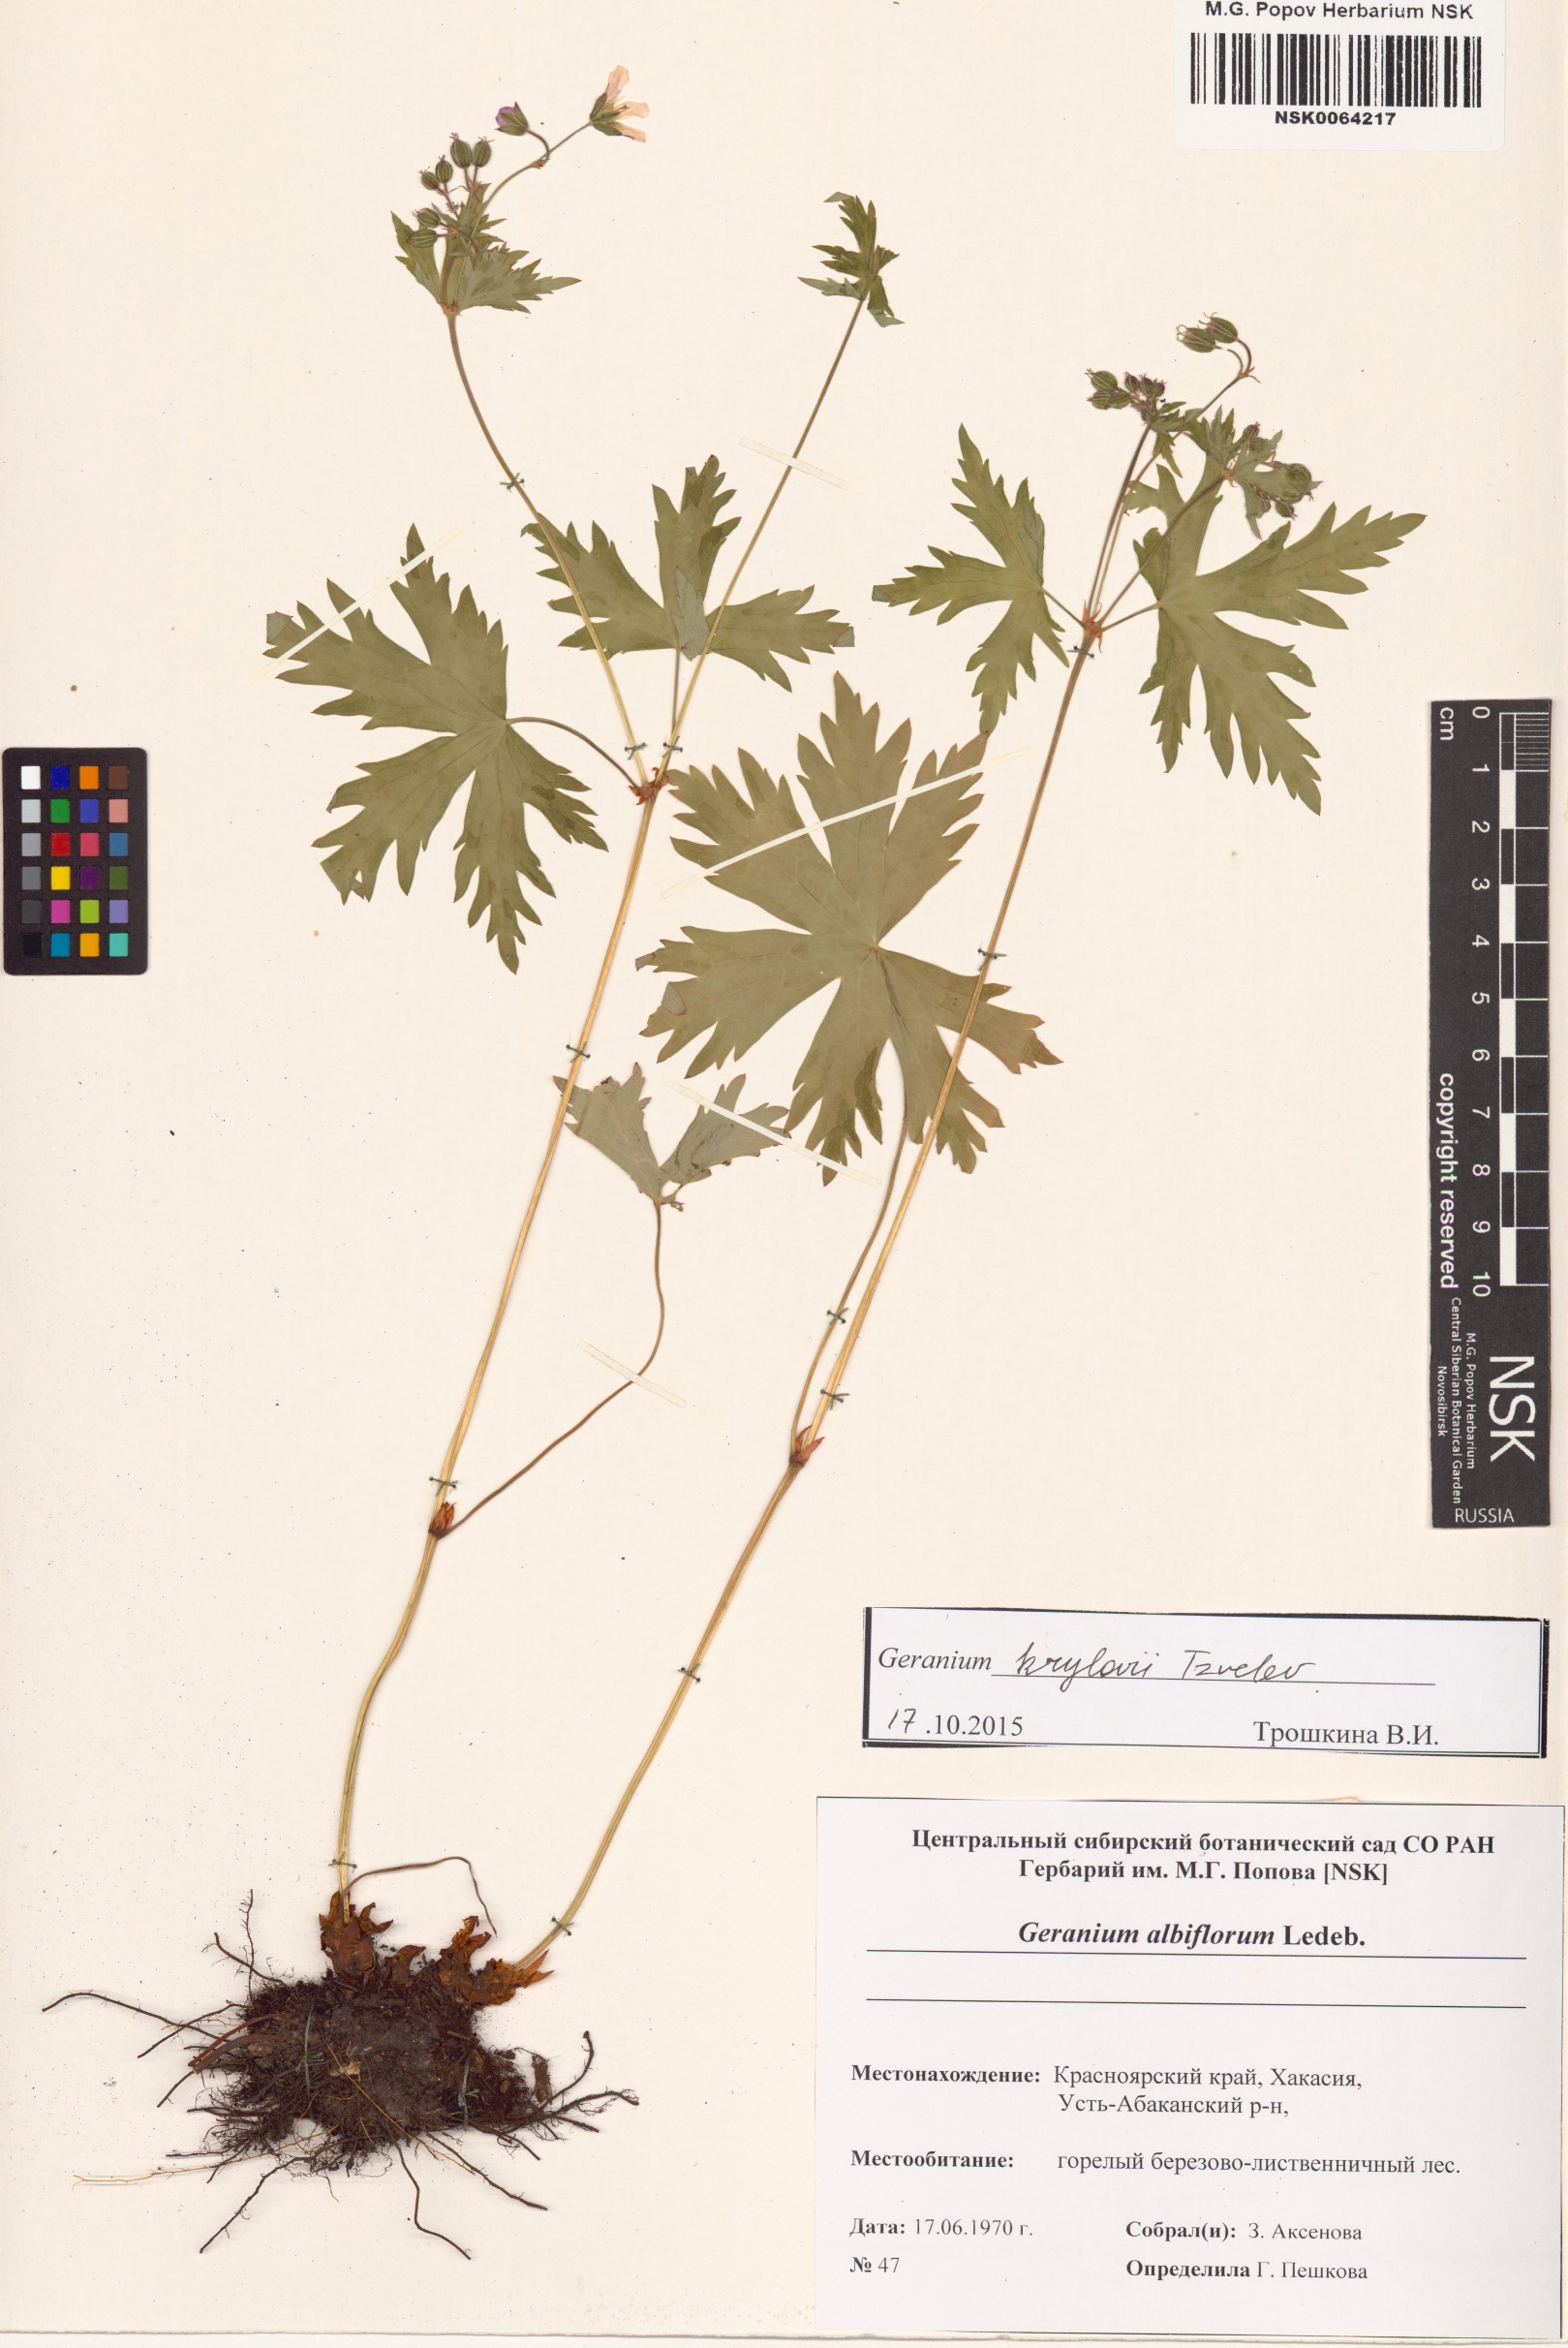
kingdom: Plantae
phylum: Tracheophyta
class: Magnoliopsida
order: Geraniales
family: Geraniaceae
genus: Geranium
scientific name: Geranium sylvaticum
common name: Wood crane's-bill
